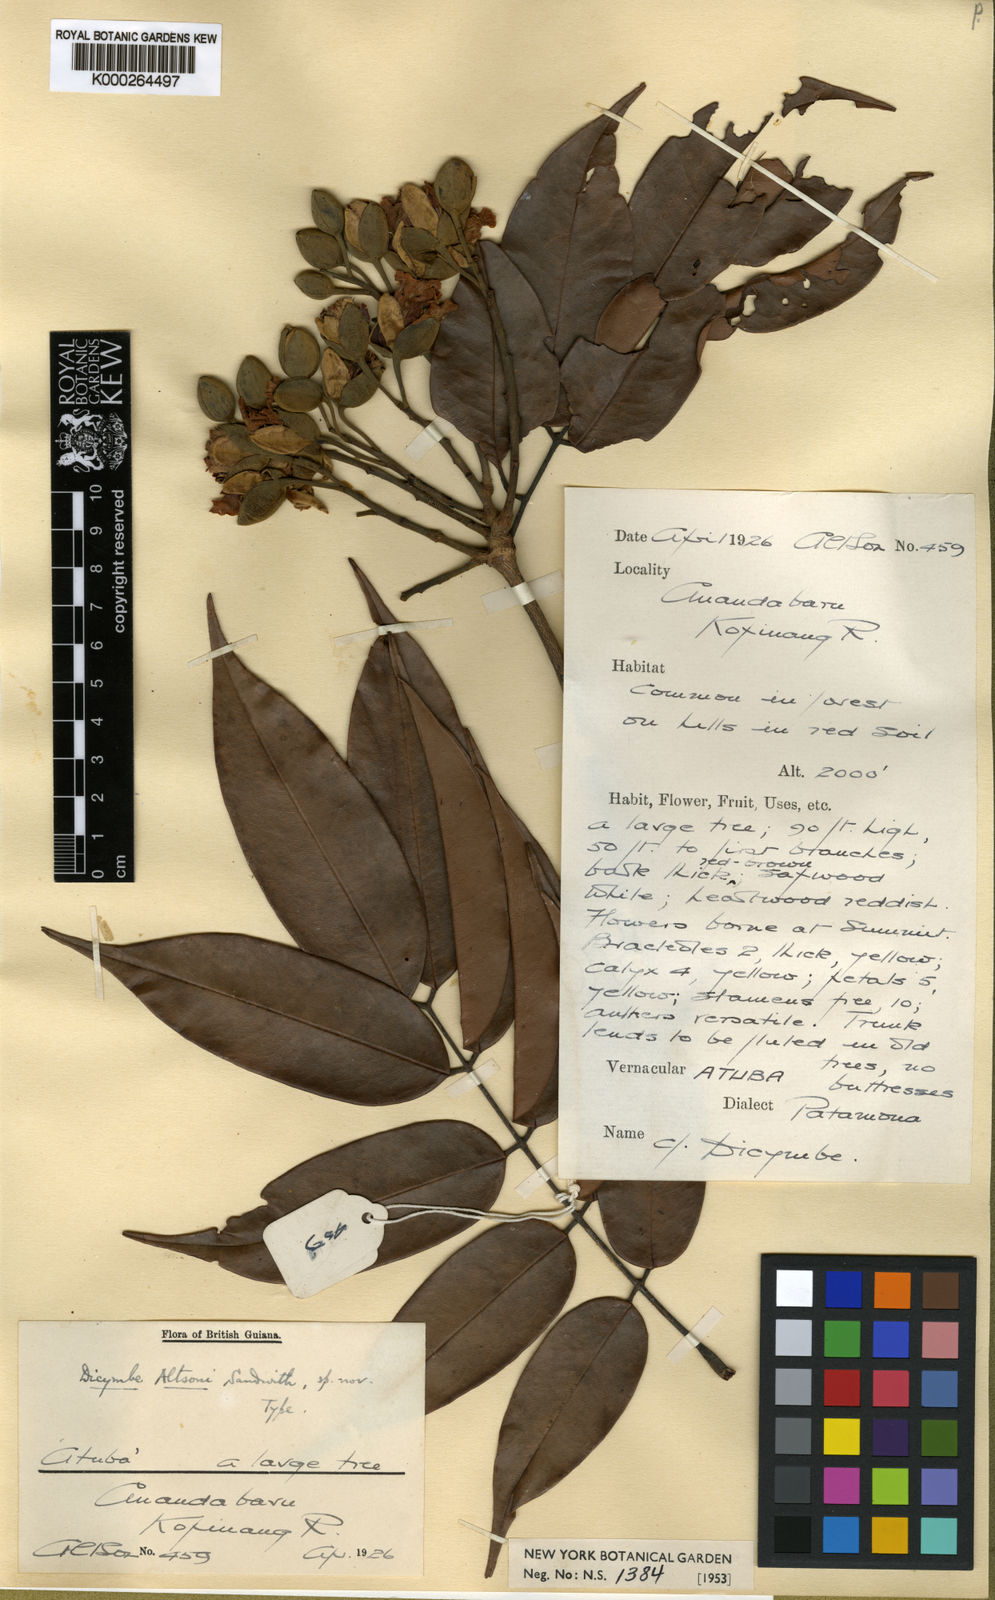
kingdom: Plantae
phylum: Tracheophyta
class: Magnoliopsida
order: Fabales
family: Fabaceae
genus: Dicymbe
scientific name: Dicymbe altsonii
